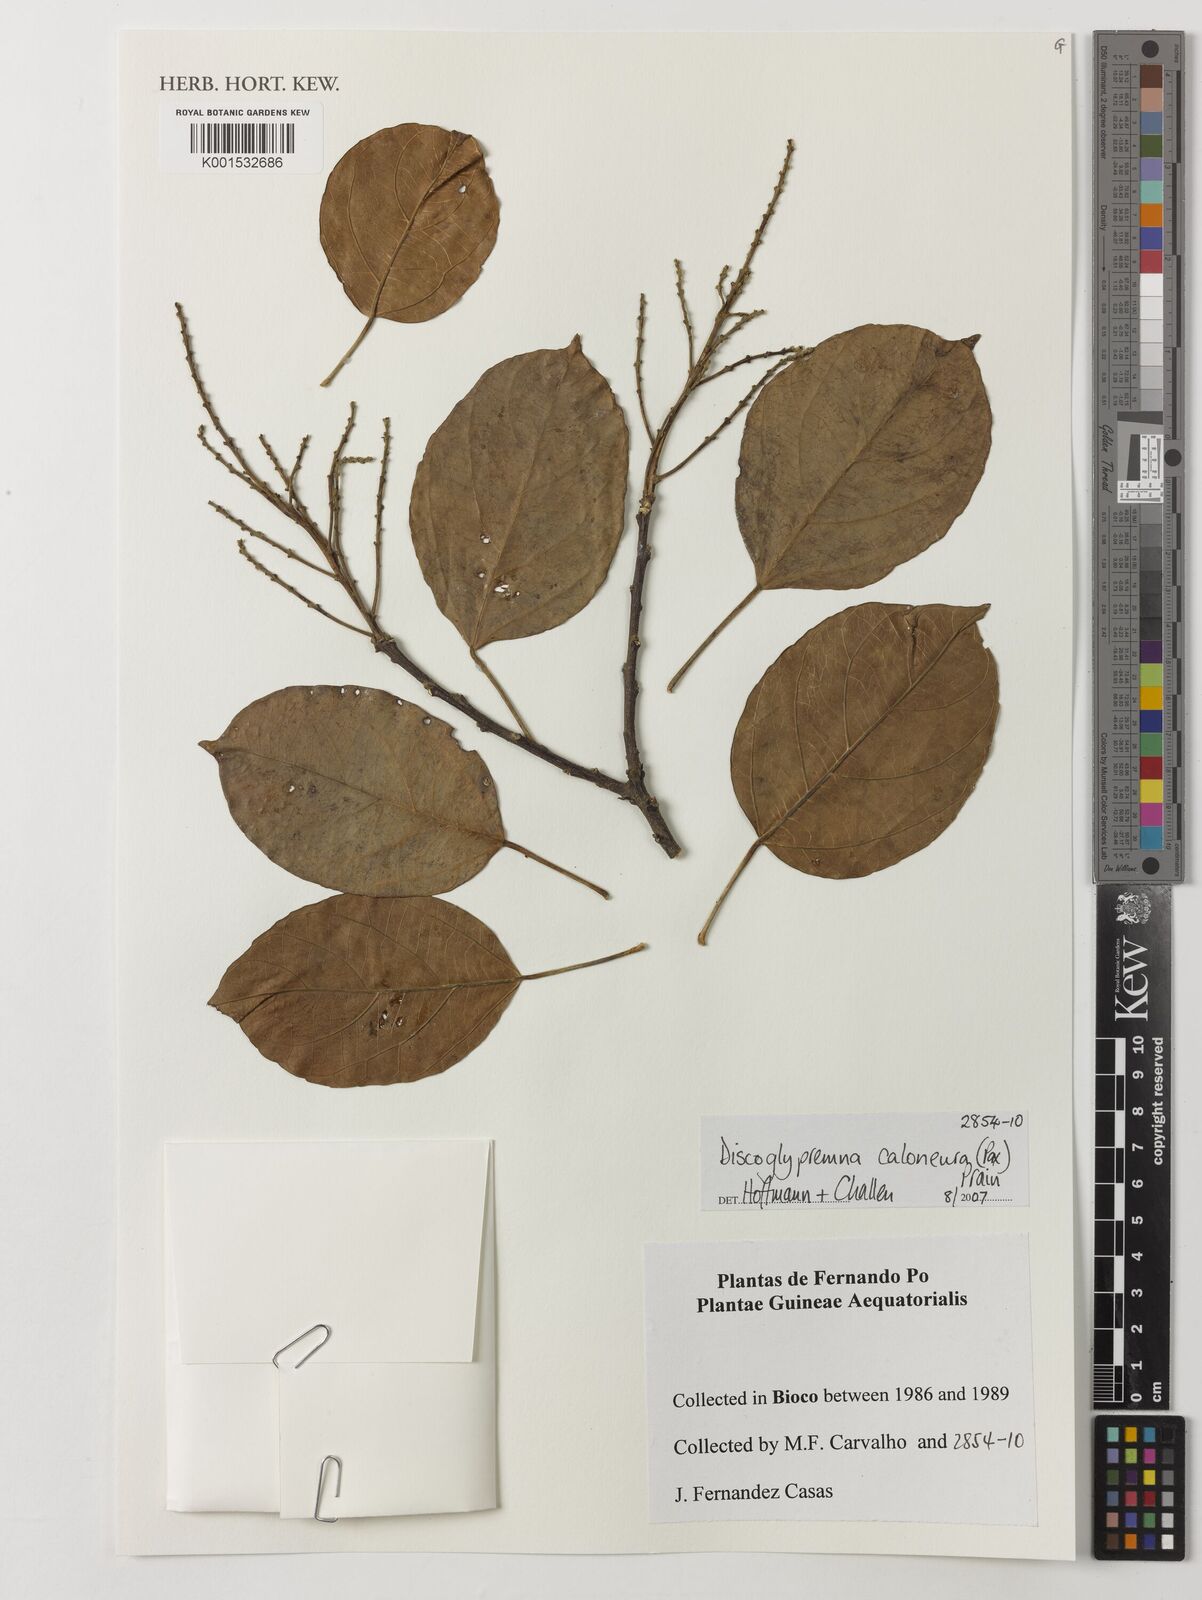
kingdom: Plantae
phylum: Tracheophyta
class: Magnoliopsida
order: Malpighiales
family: Euphorbiaceae
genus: Discoglypremna
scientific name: Discoglypremna caloneura
